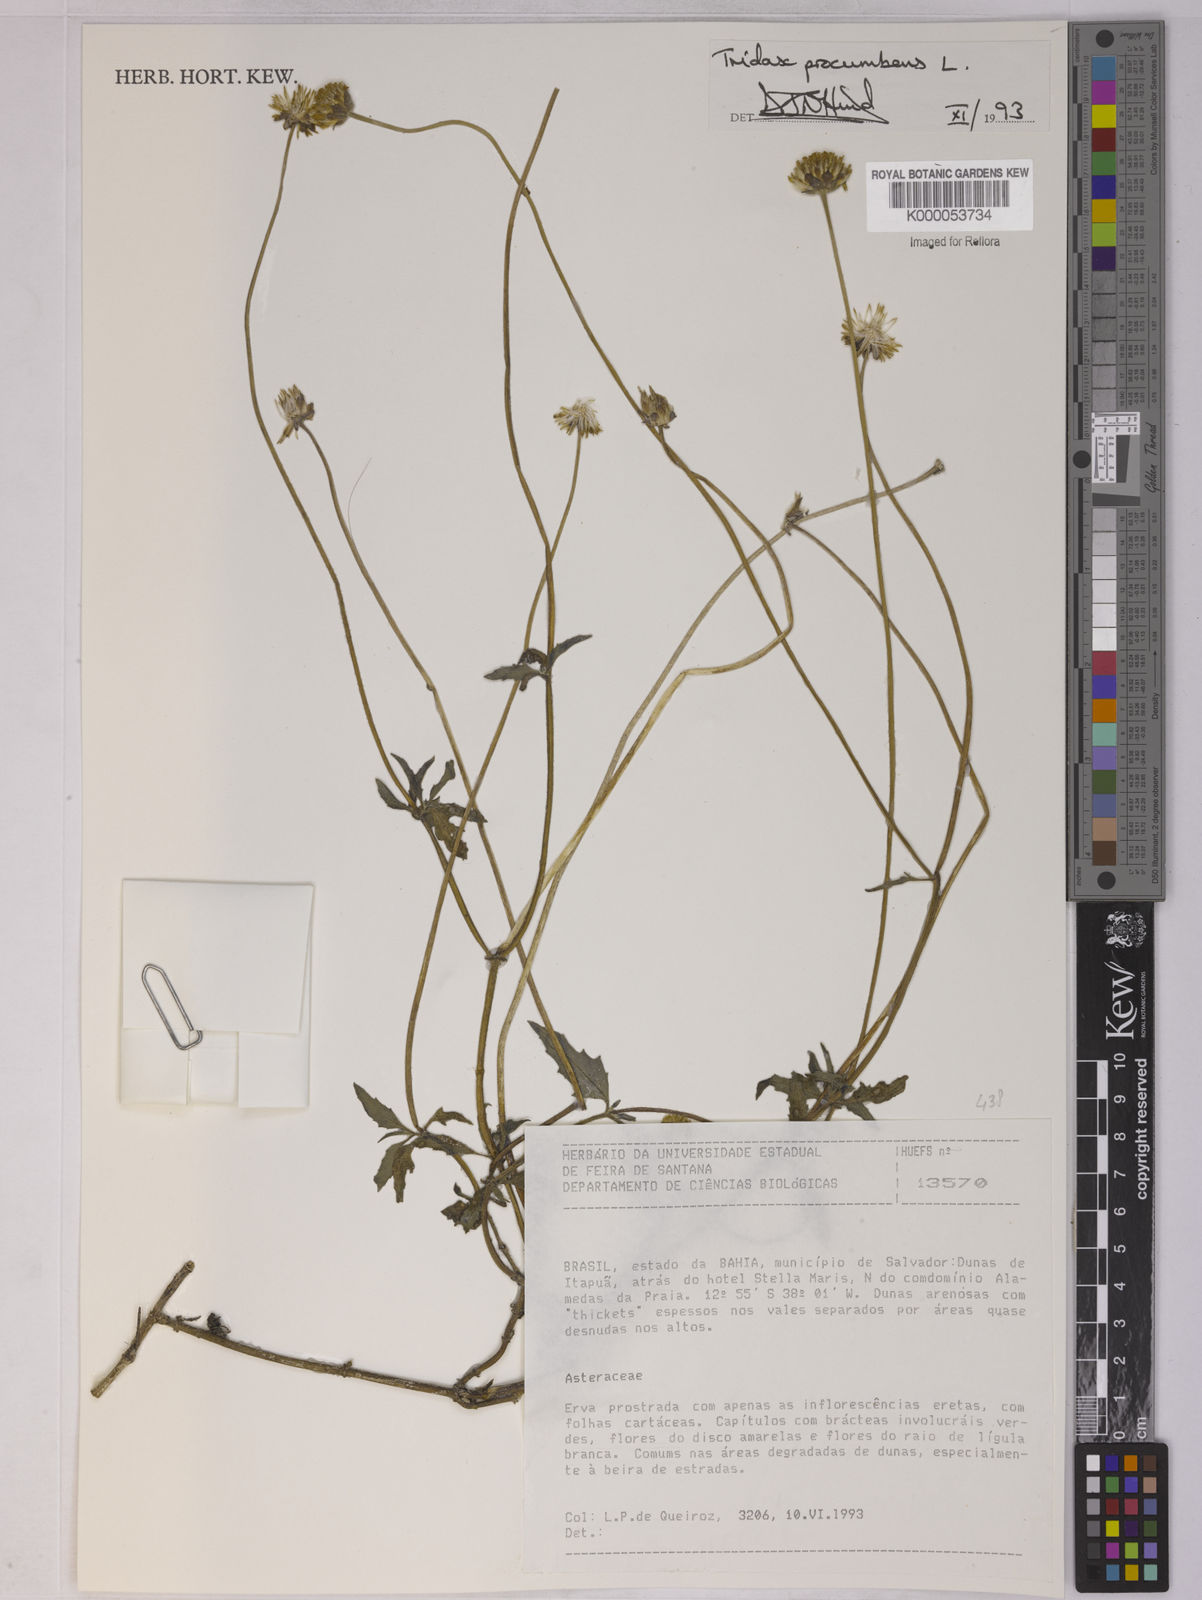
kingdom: Plantae
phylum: Tracheophyta
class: Magnoliopsida
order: Asterales
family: Asteraceae
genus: Tridax
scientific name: Tridax procumbens
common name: Coatbuttons
